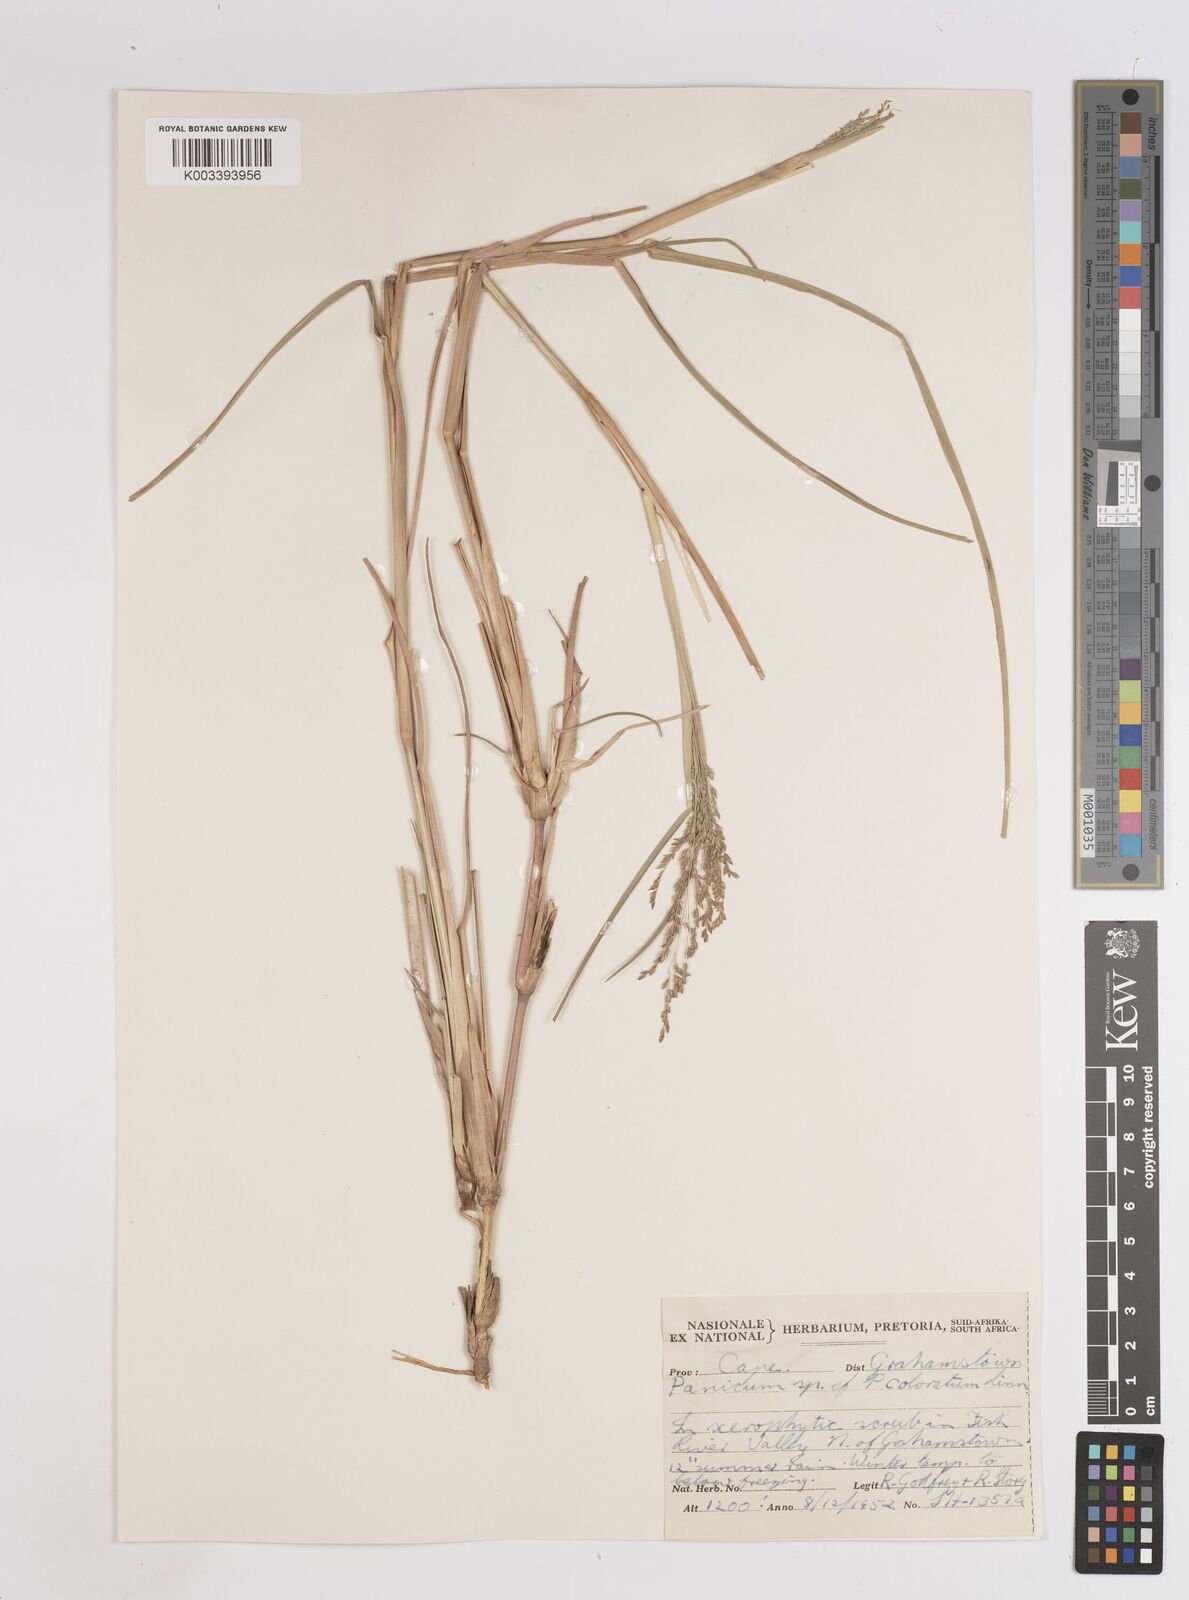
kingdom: Plantae
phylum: Tracheophyta
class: Liliopsida
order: Poales
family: Poaceae
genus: Panicum
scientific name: Panicum coloratum
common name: Kleingrass
